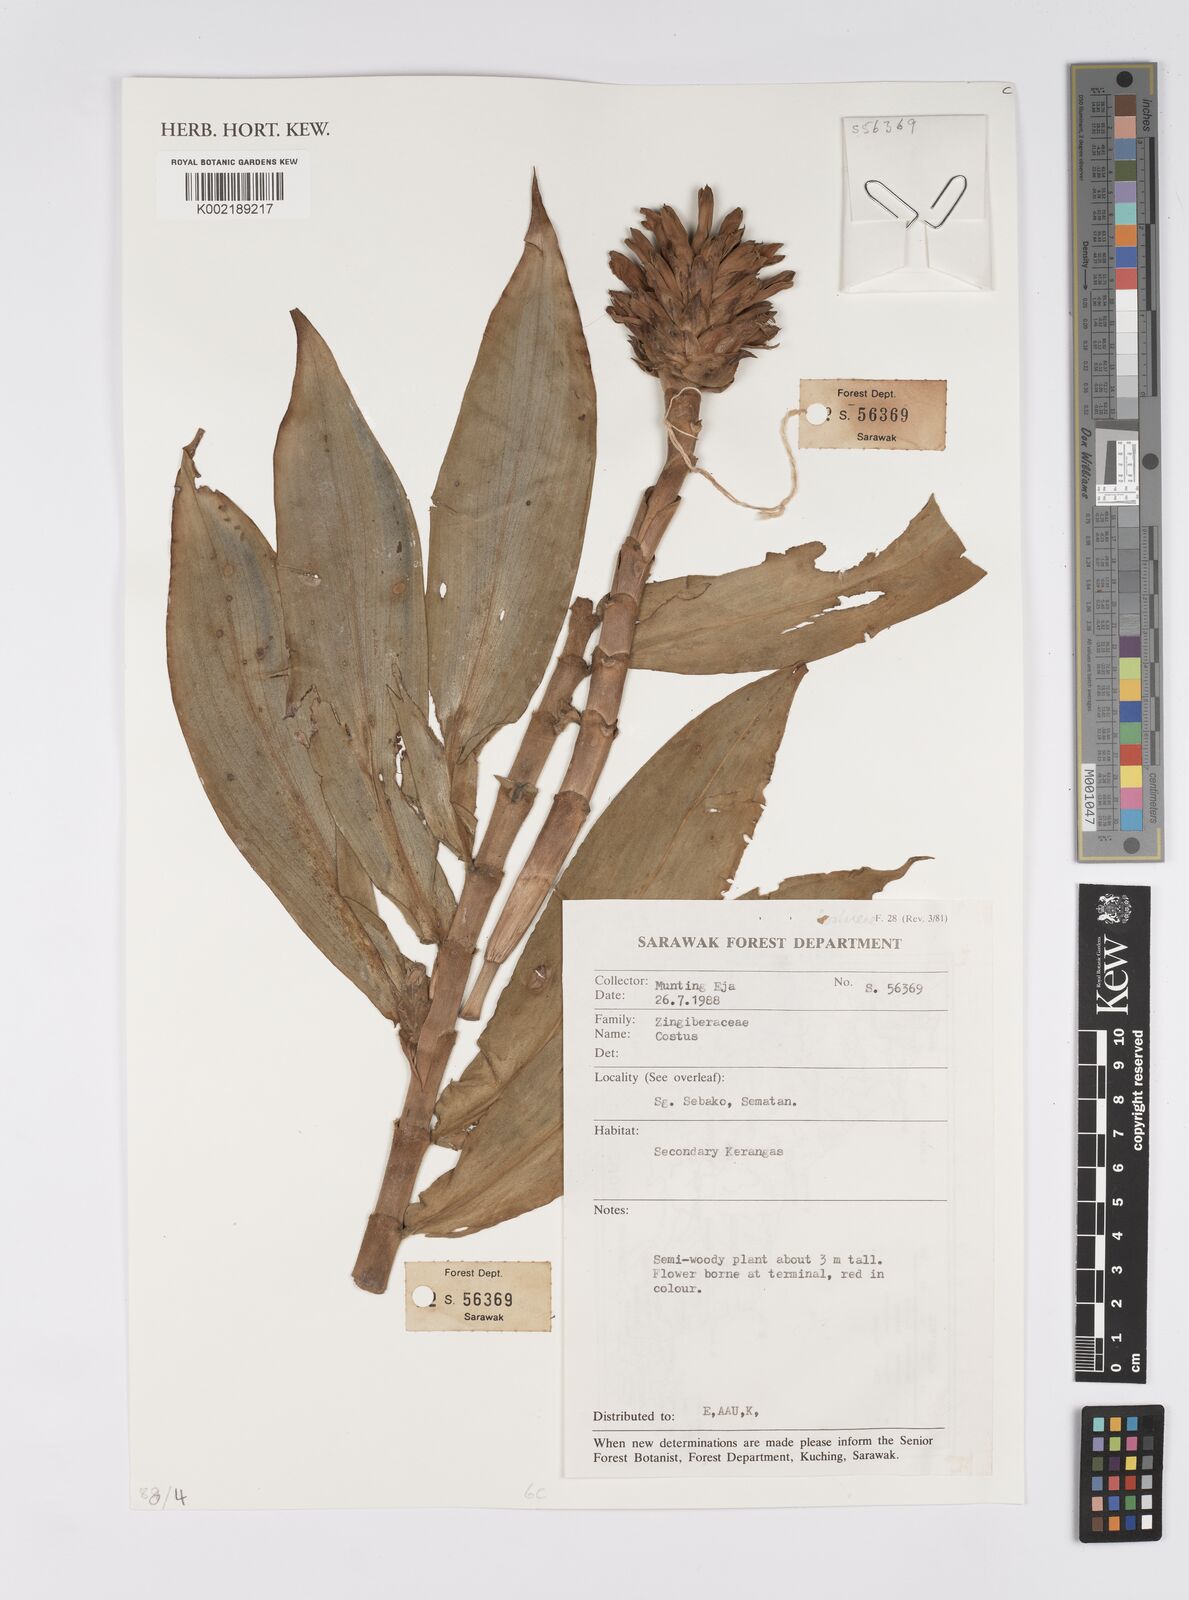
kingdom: Plantae
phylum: Tracheophyta
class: Liliopsida
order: Zingiberales
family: Costaceae
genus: Costus
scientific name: Costus
